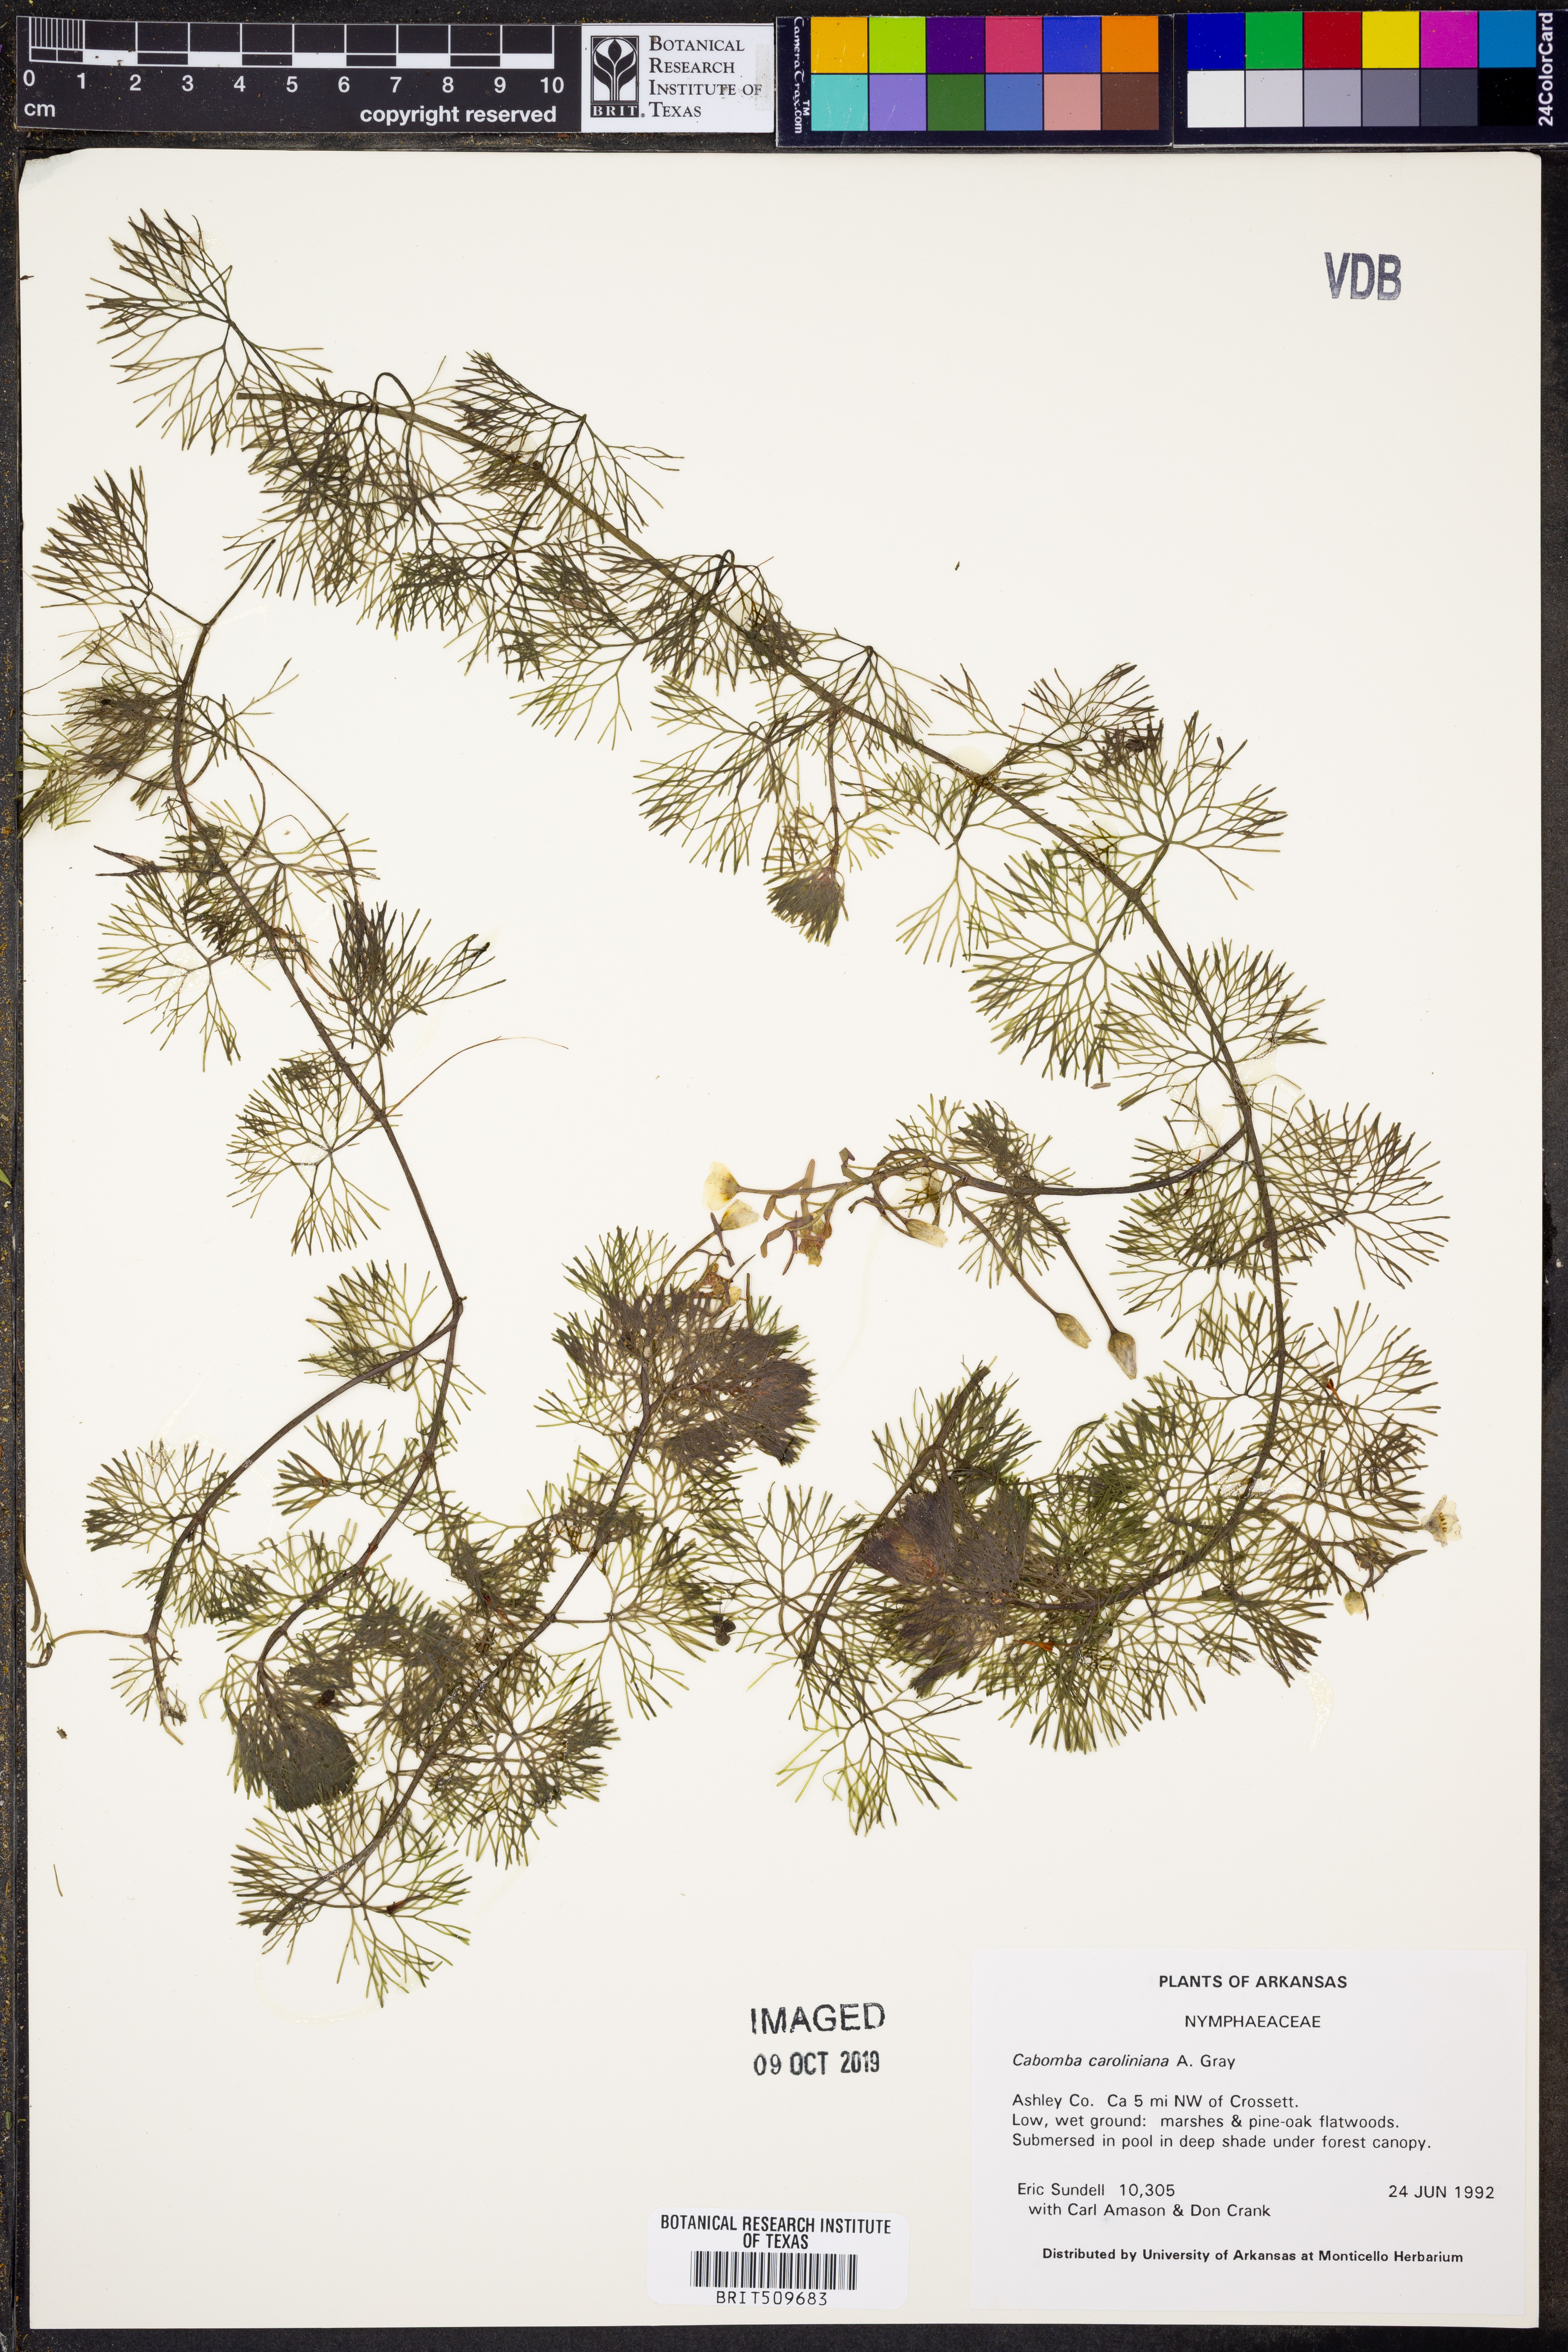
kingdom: Plantae
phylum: Tracheophyta
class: Magnoliopsida
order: Nymphaeales
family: Cabombaceae
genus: Cabomba
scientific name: Cabomba caroliniana
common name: Fanwort
